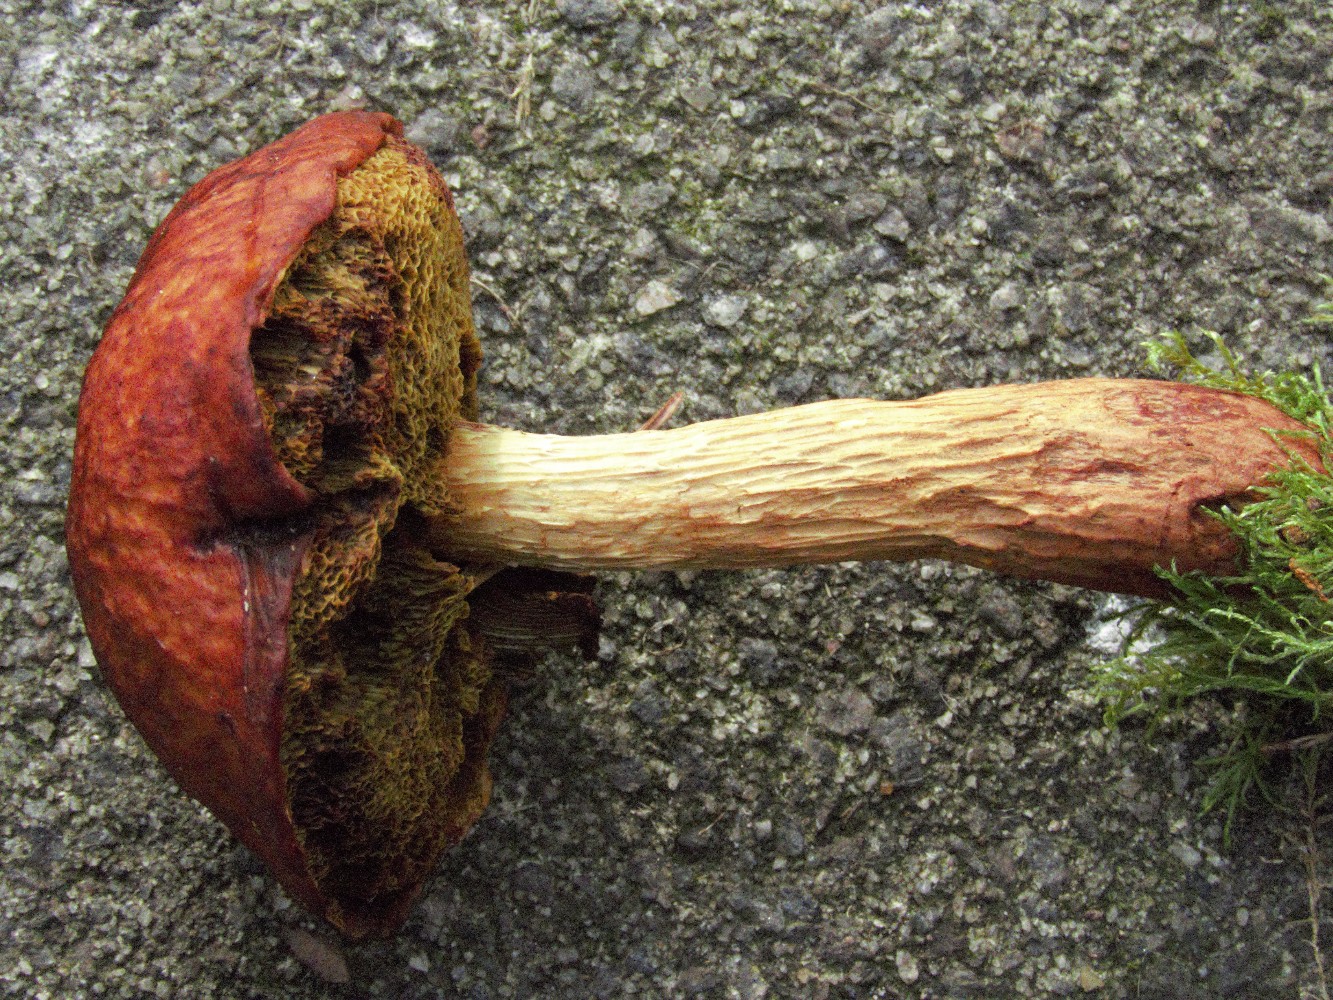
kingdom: Fungi
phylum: Basidiomycota
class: Agaricomycetes
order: Boletales
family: Boletaceae
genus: Aureoboletus
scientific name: Aureoboletus projectellus
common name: ribbestokket rørhat
